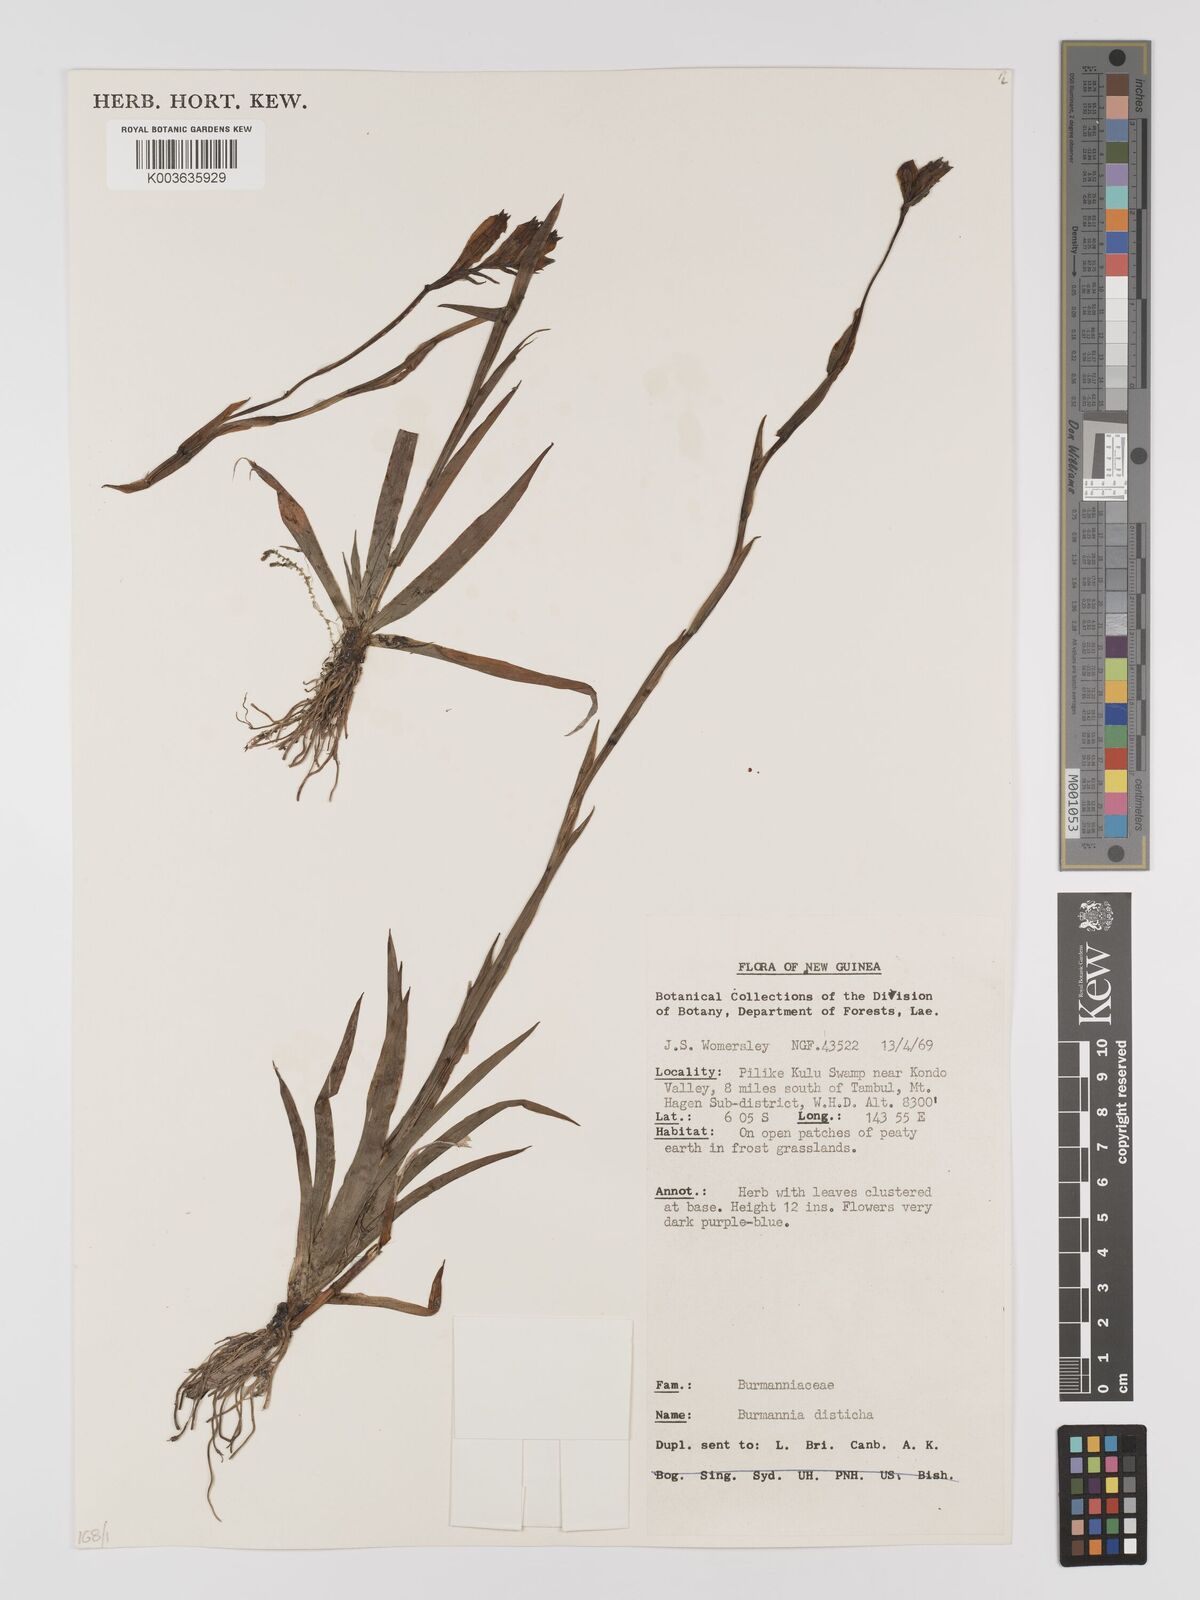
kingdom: Plantae
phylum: Tracheophyta
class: Liliopsida
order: Dioscoreales
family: Burmanniaceae
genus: Burmannia
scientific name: Burmannia disticha
